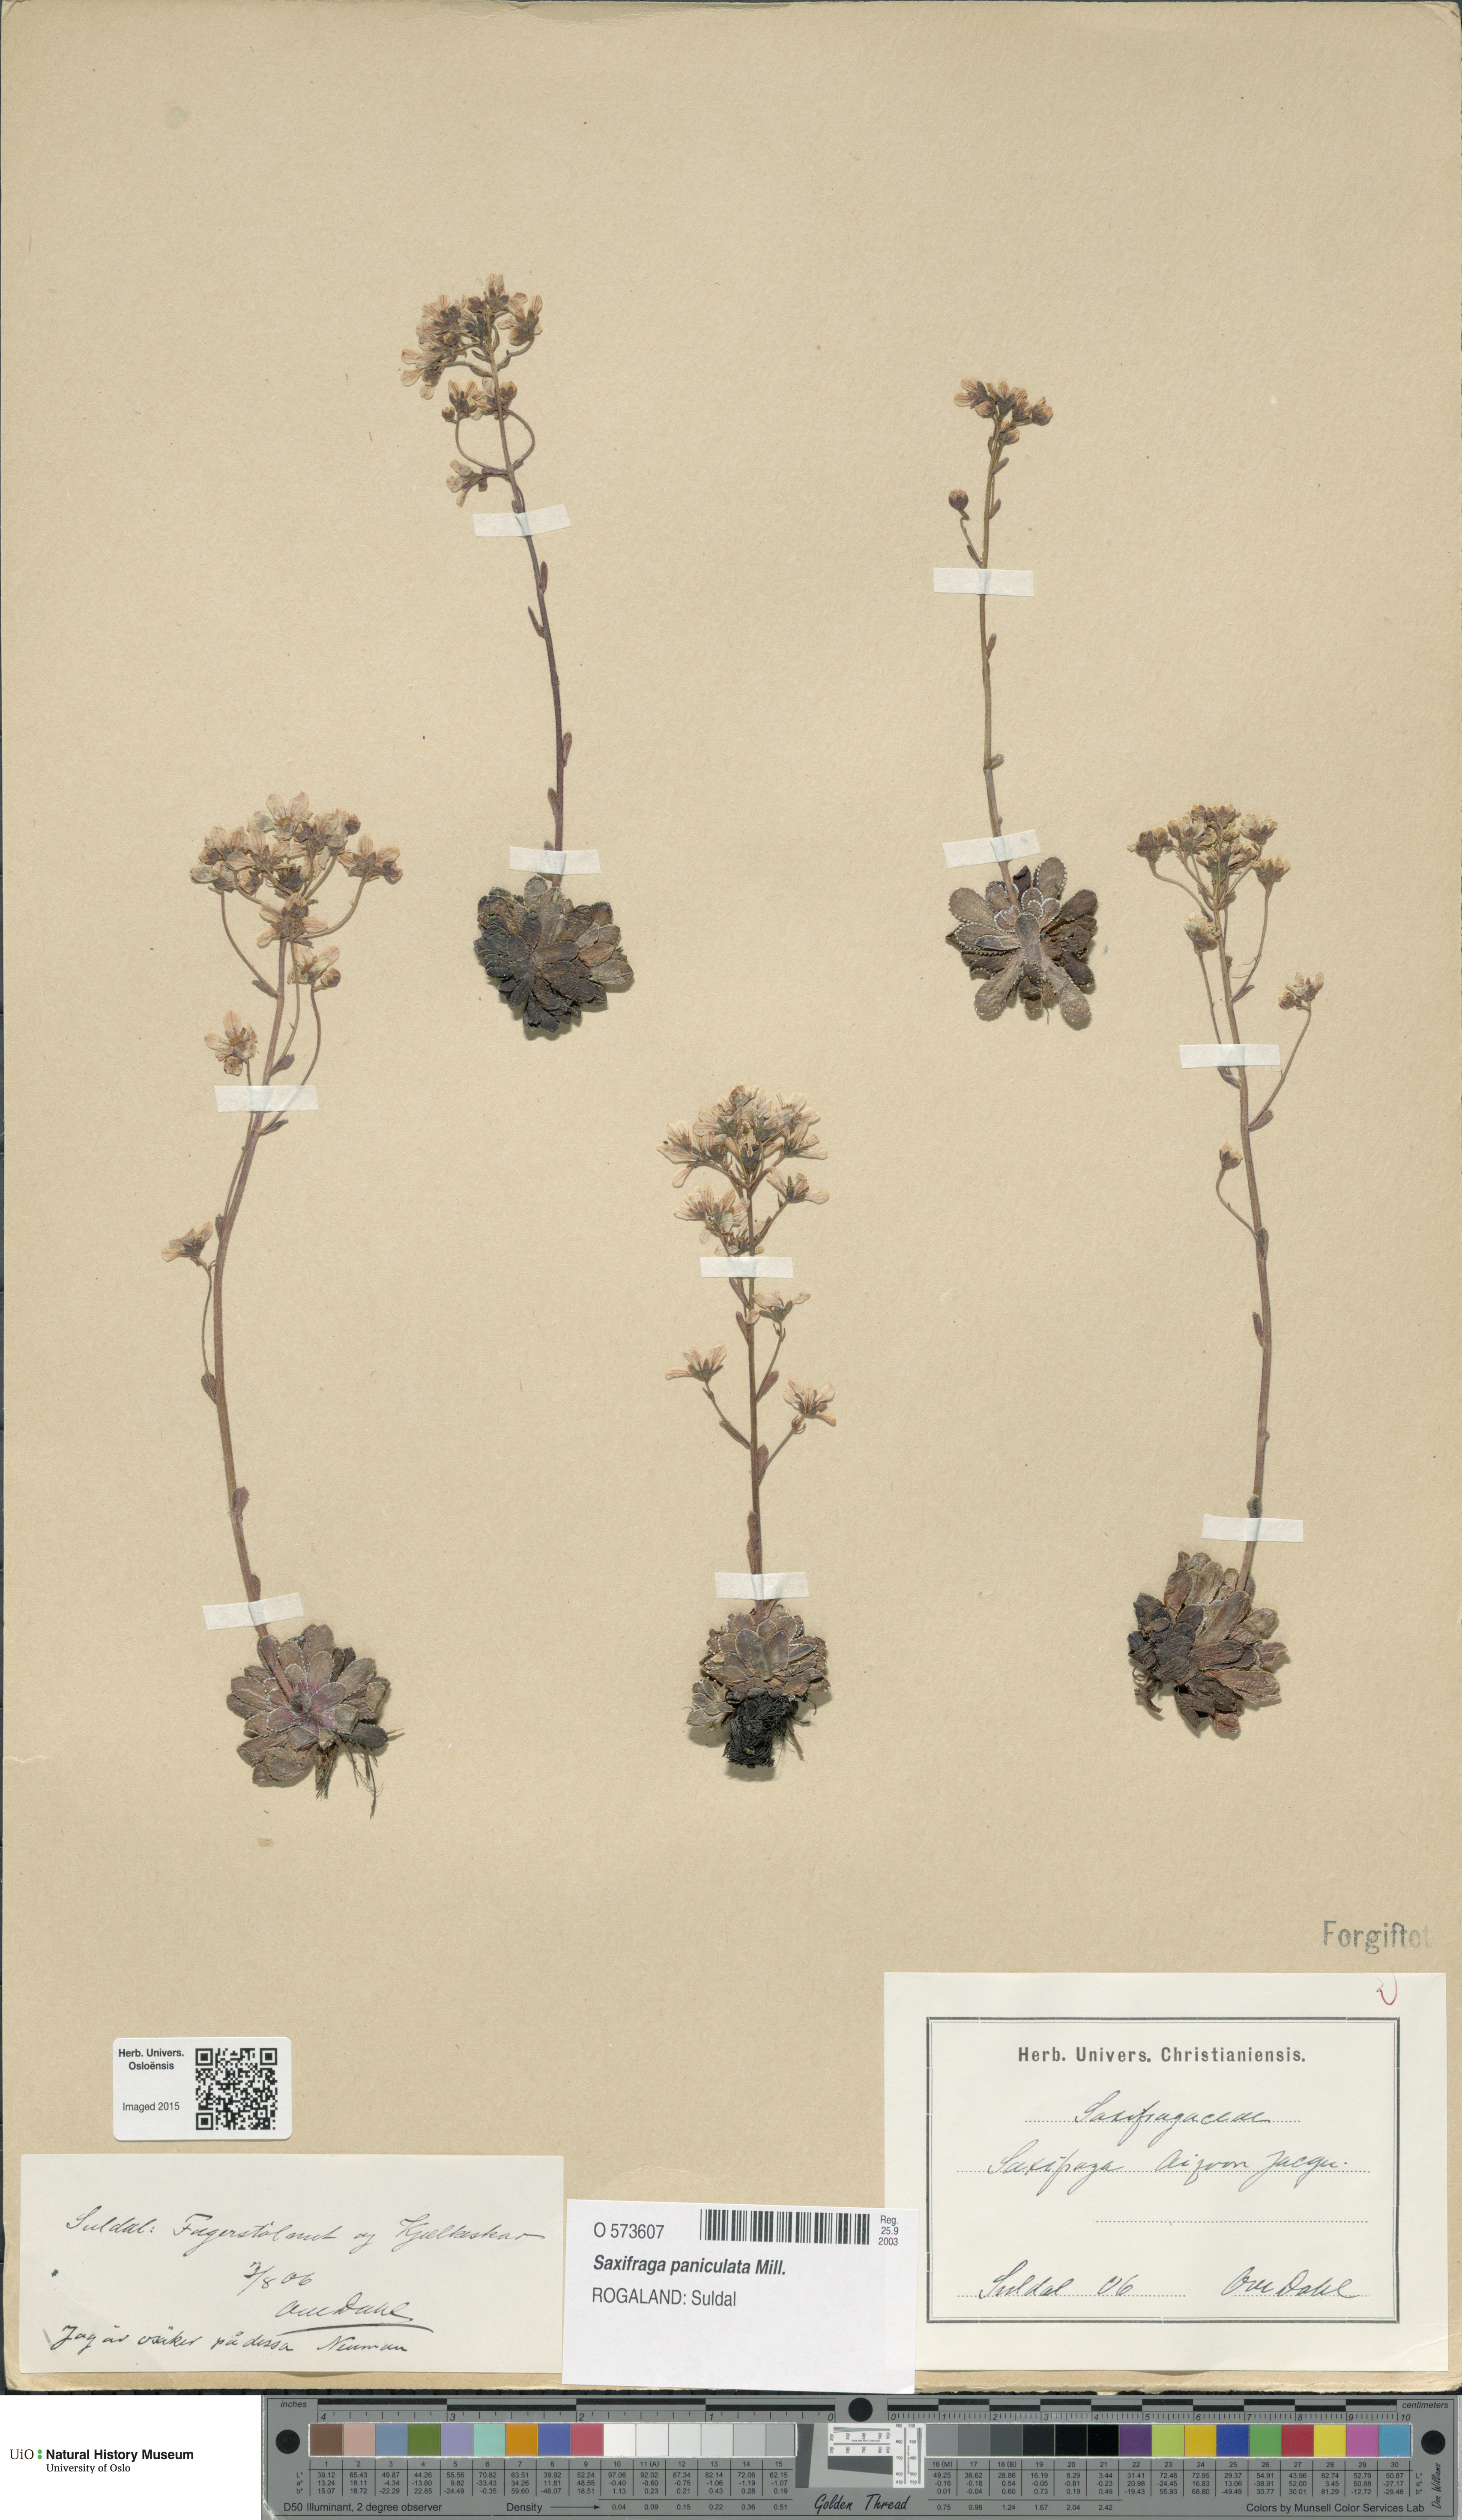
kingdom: Plantae
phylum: Tracheophyta
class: Magnoliopsida
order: Saxifragales
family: Saxifragaceae
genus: Saxifraga
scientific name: Saxifraga paniculata
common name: Livelong saxifrage
